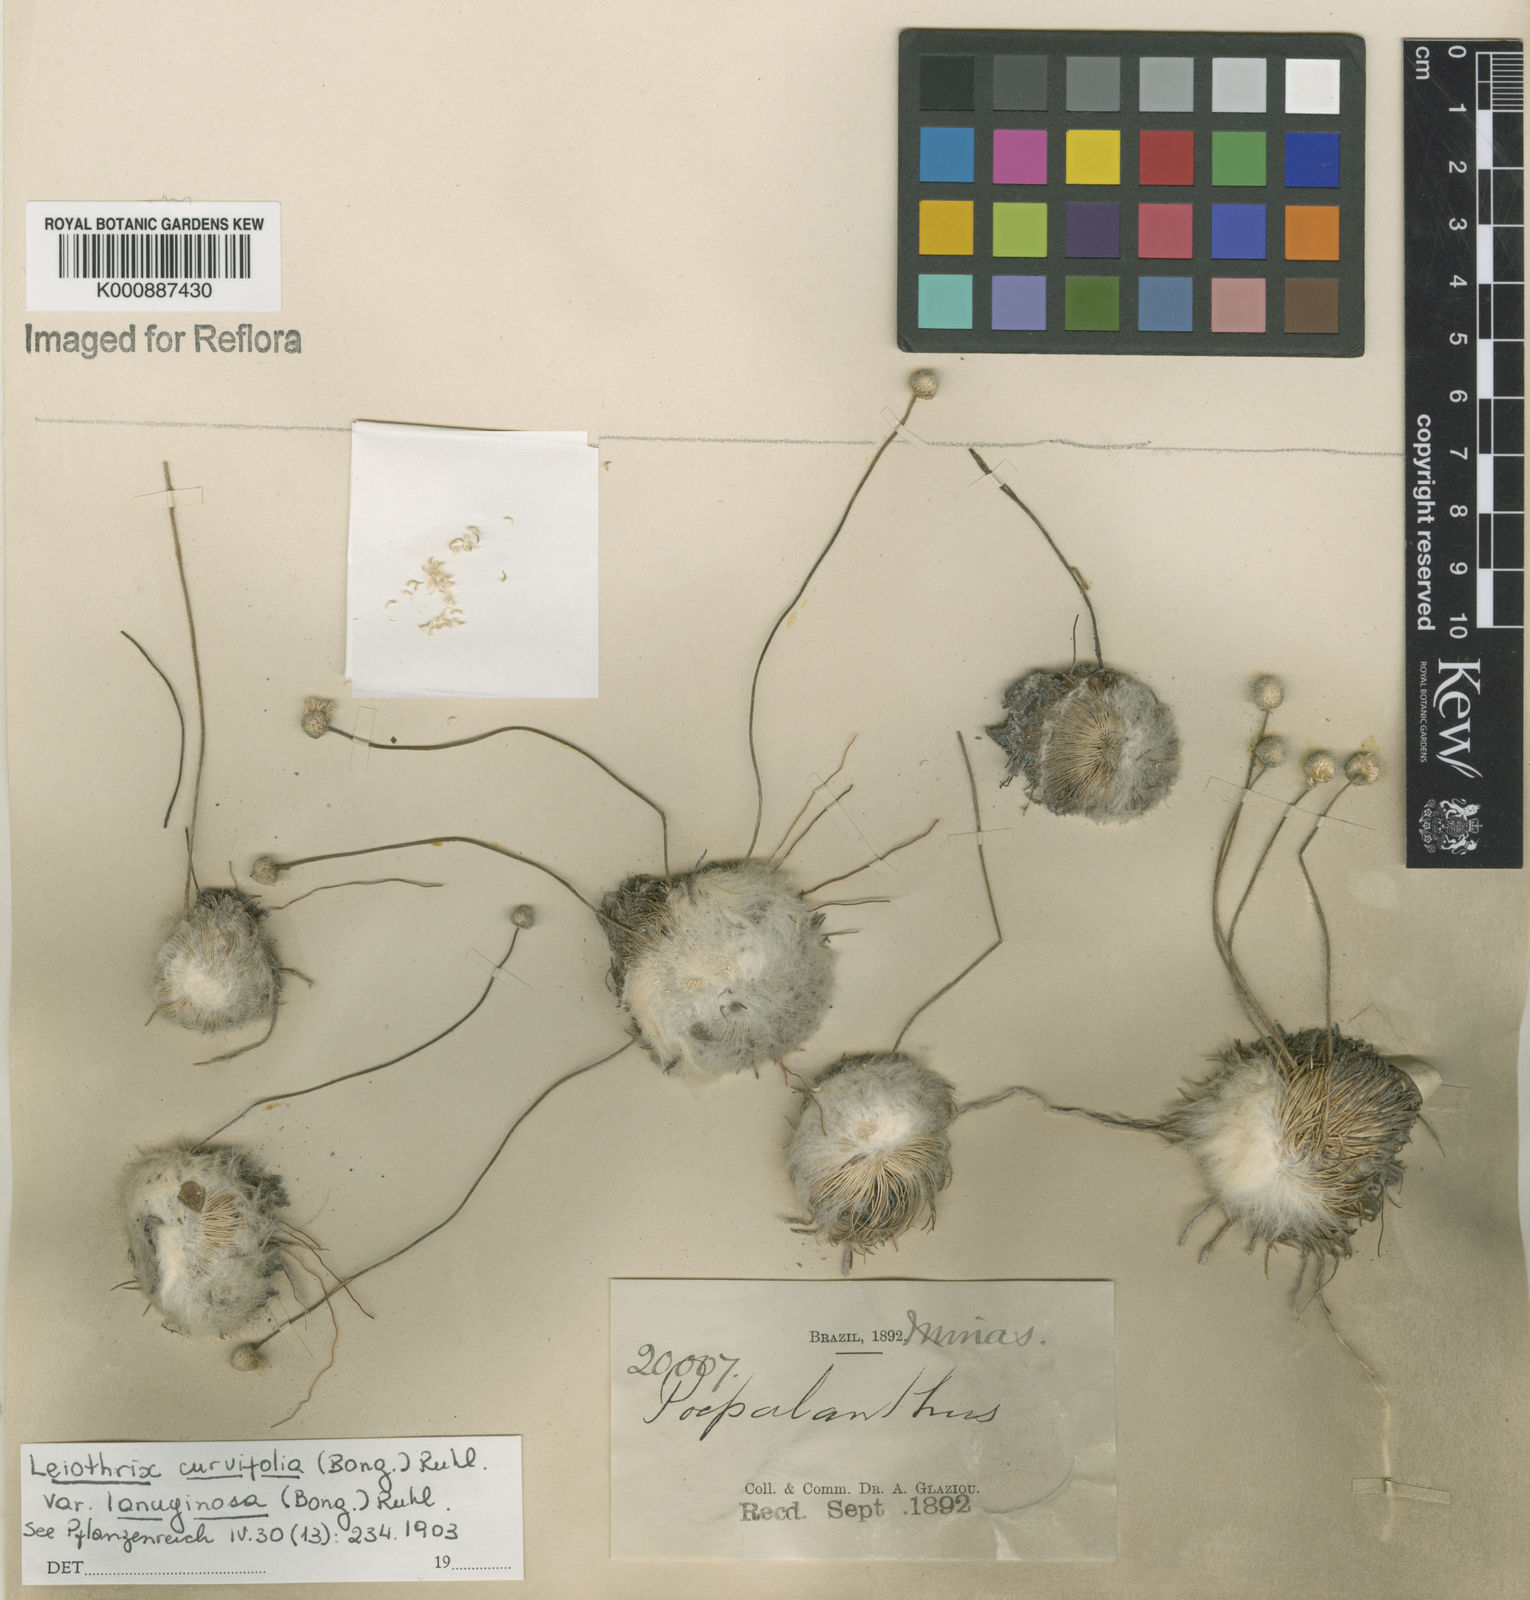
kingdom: Plantae
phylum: Tracheophyta
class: Liliopsida
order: Poales
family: Eriocaulaceae
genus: Leiothrix
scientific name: Leiothrix curvifolia
